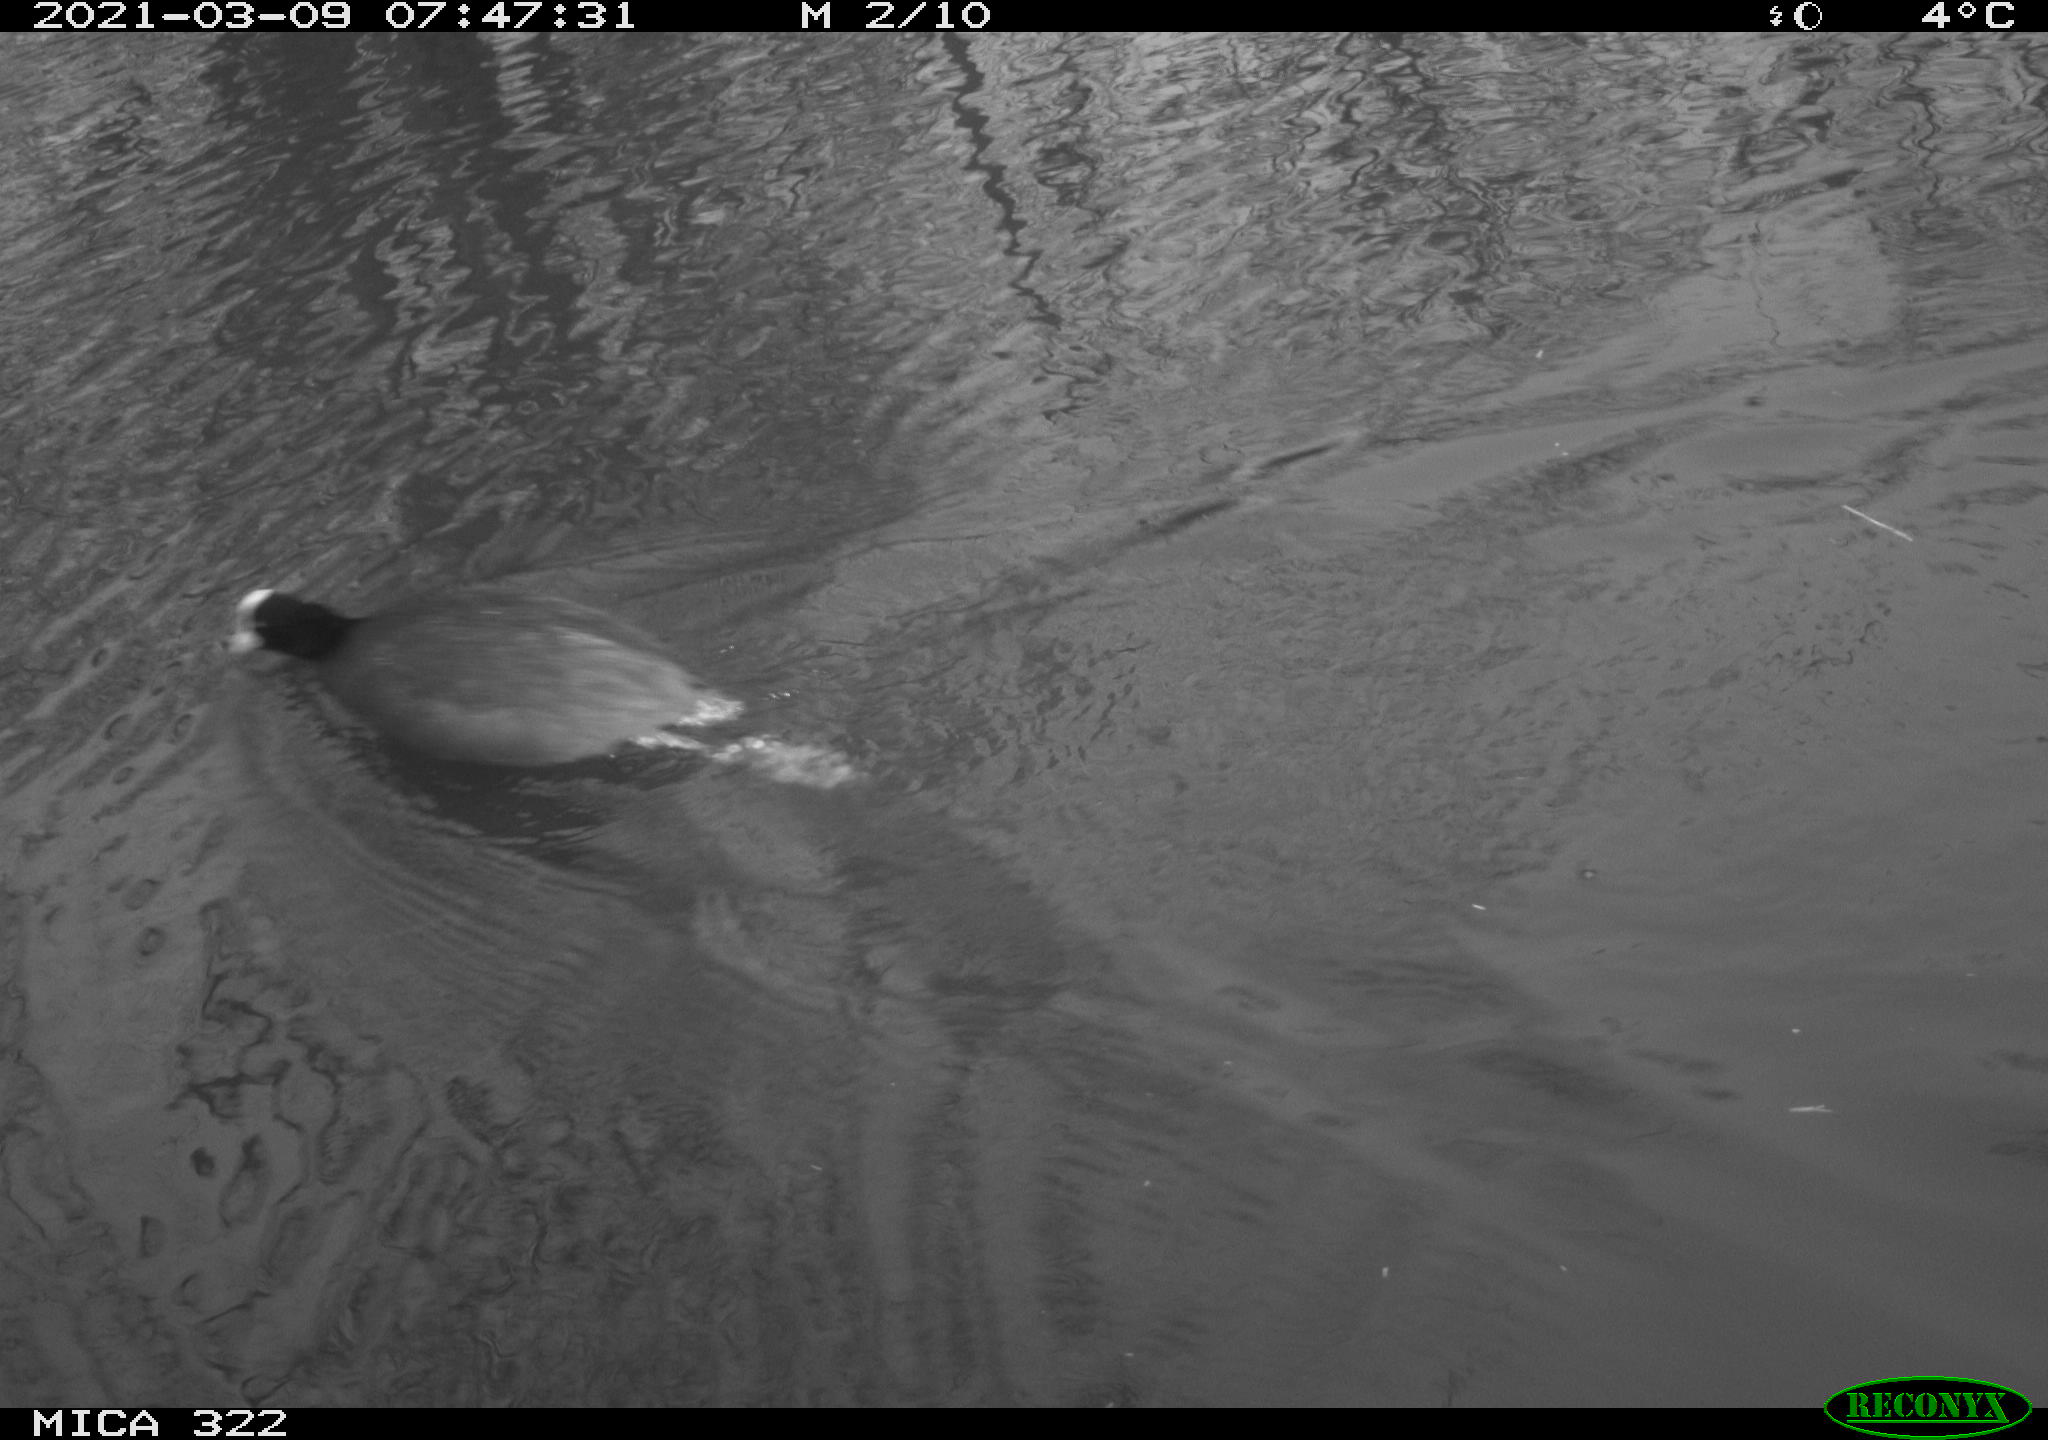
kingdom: Animalia
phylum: Chordata
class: Aves
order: Gruiformes
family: Rallidae
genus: Fulica
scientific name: Fulica atra
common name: Eurasian coot
